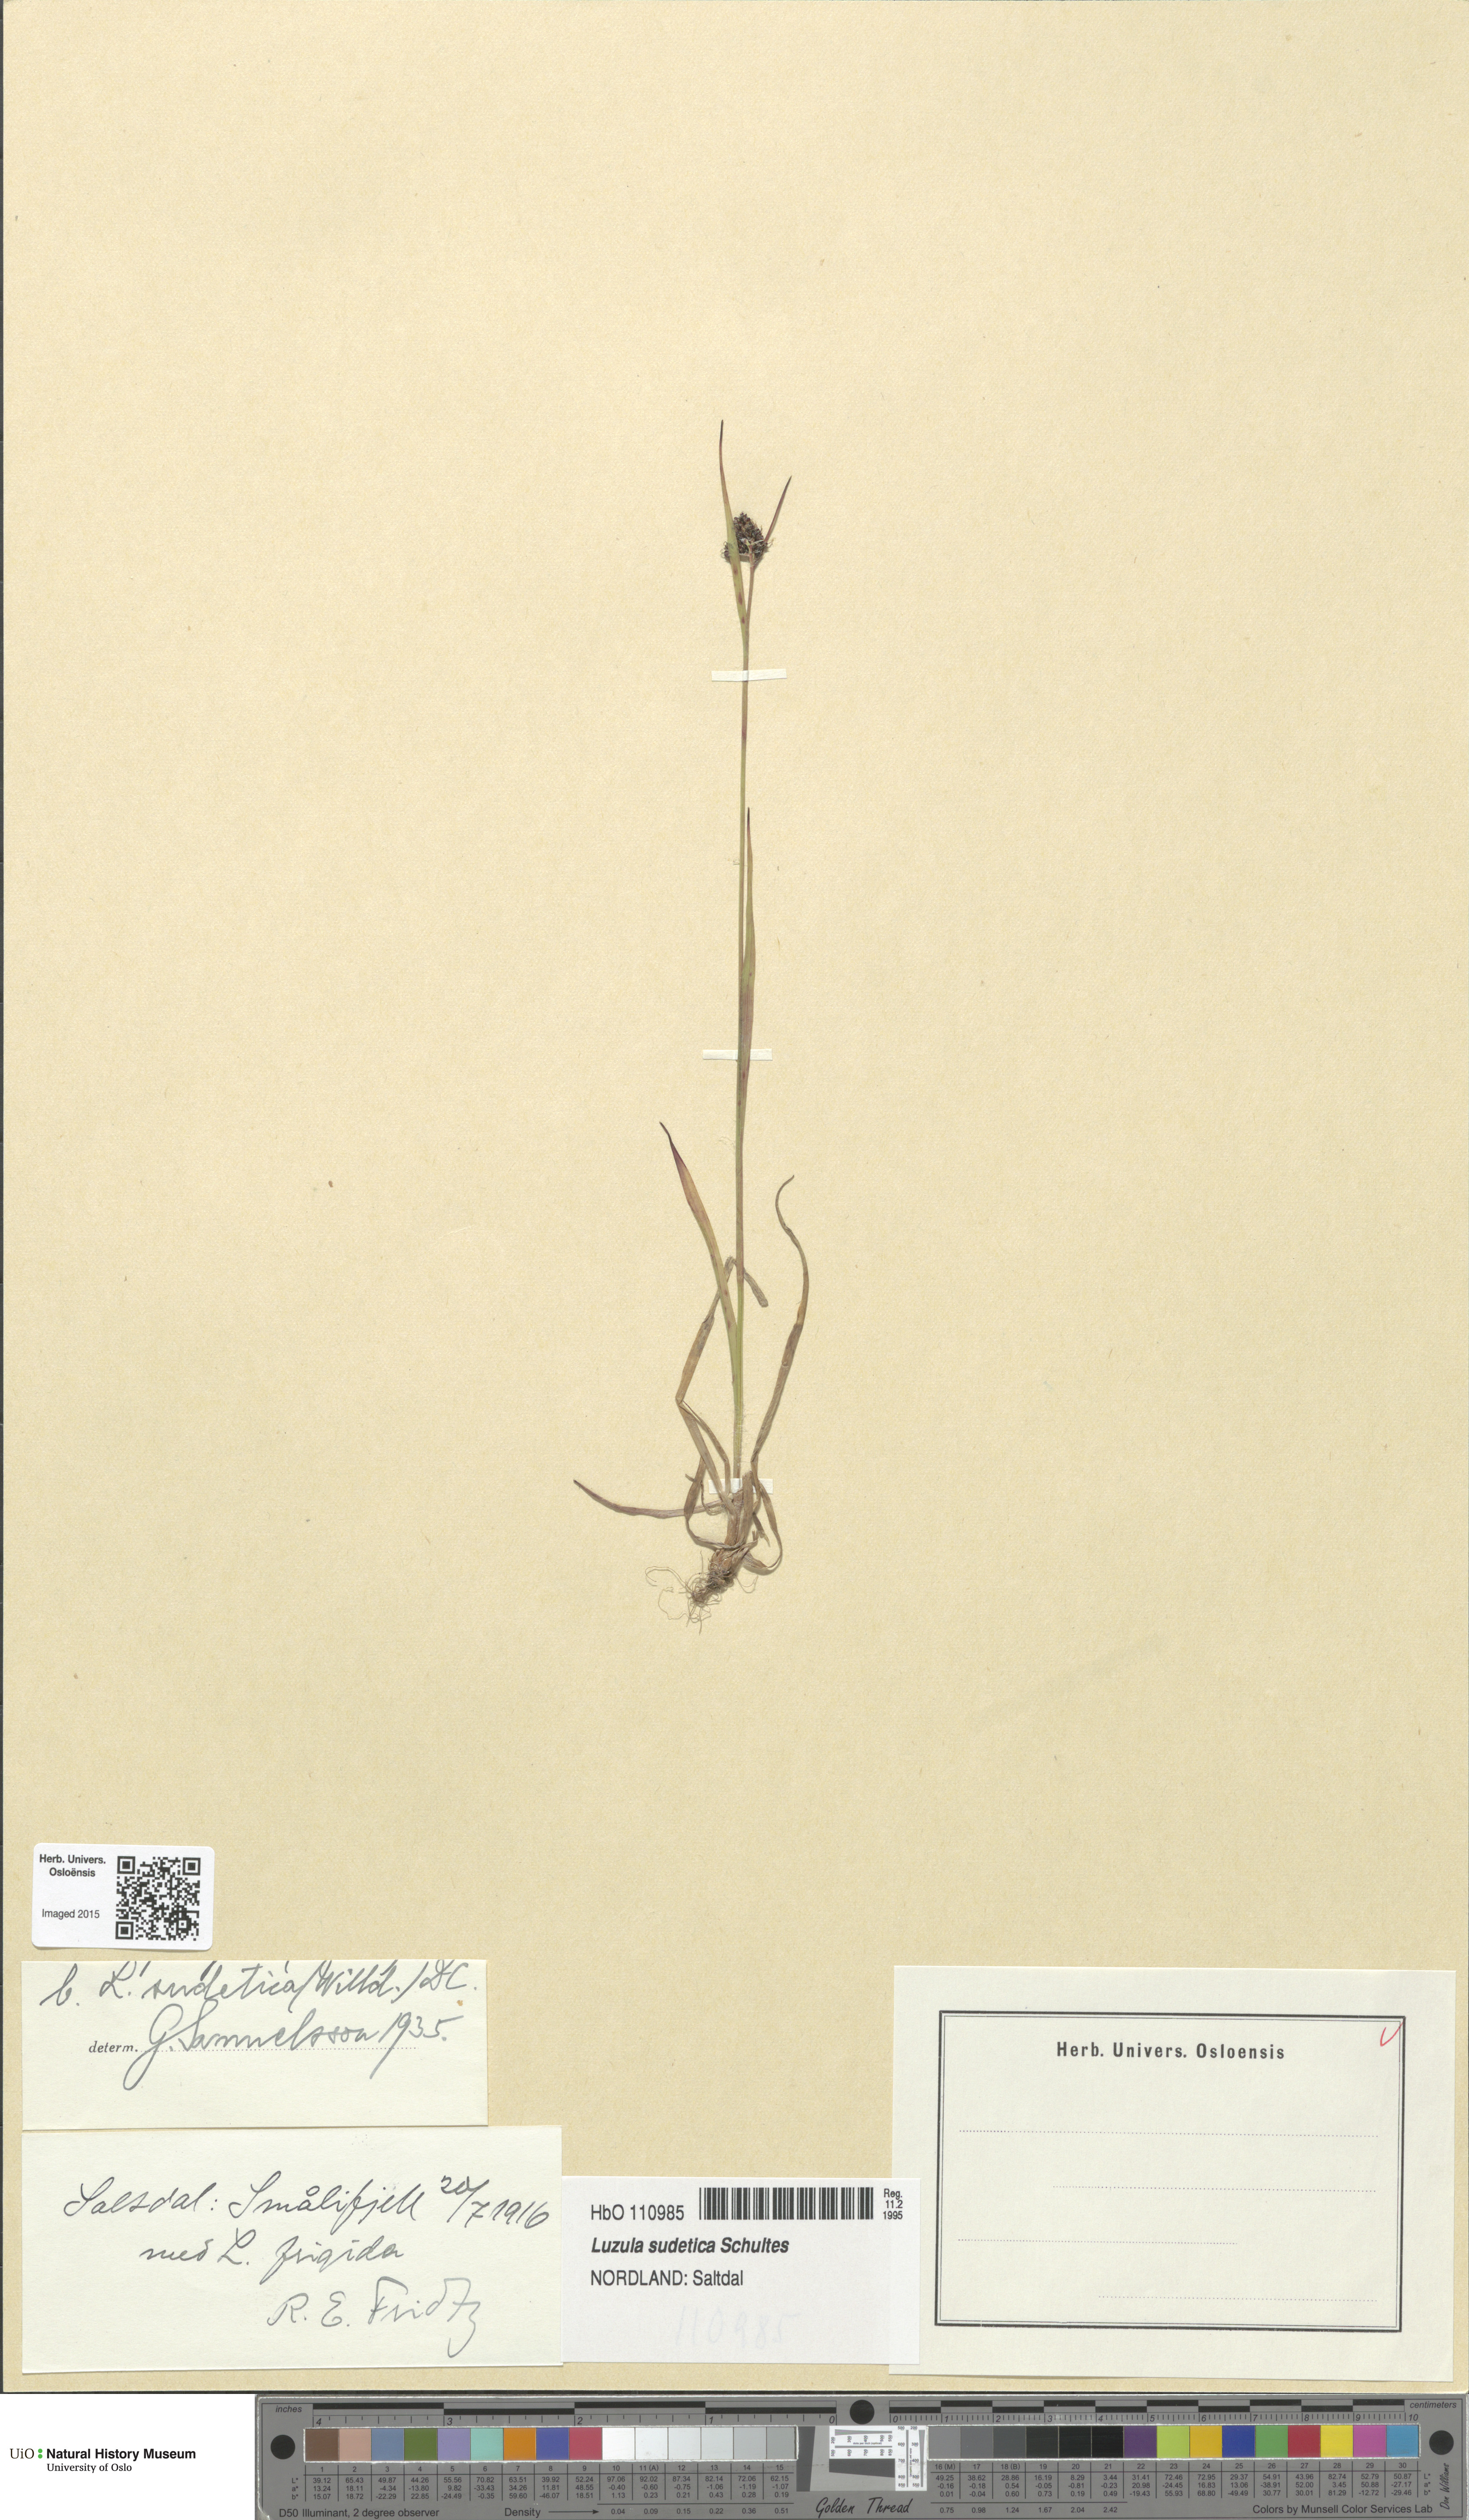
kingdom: Plantae
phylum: Tracheophyta
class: Liliopsida
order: Poales
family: Juncaceae
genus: Luzula
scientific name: Luzula sudetica
